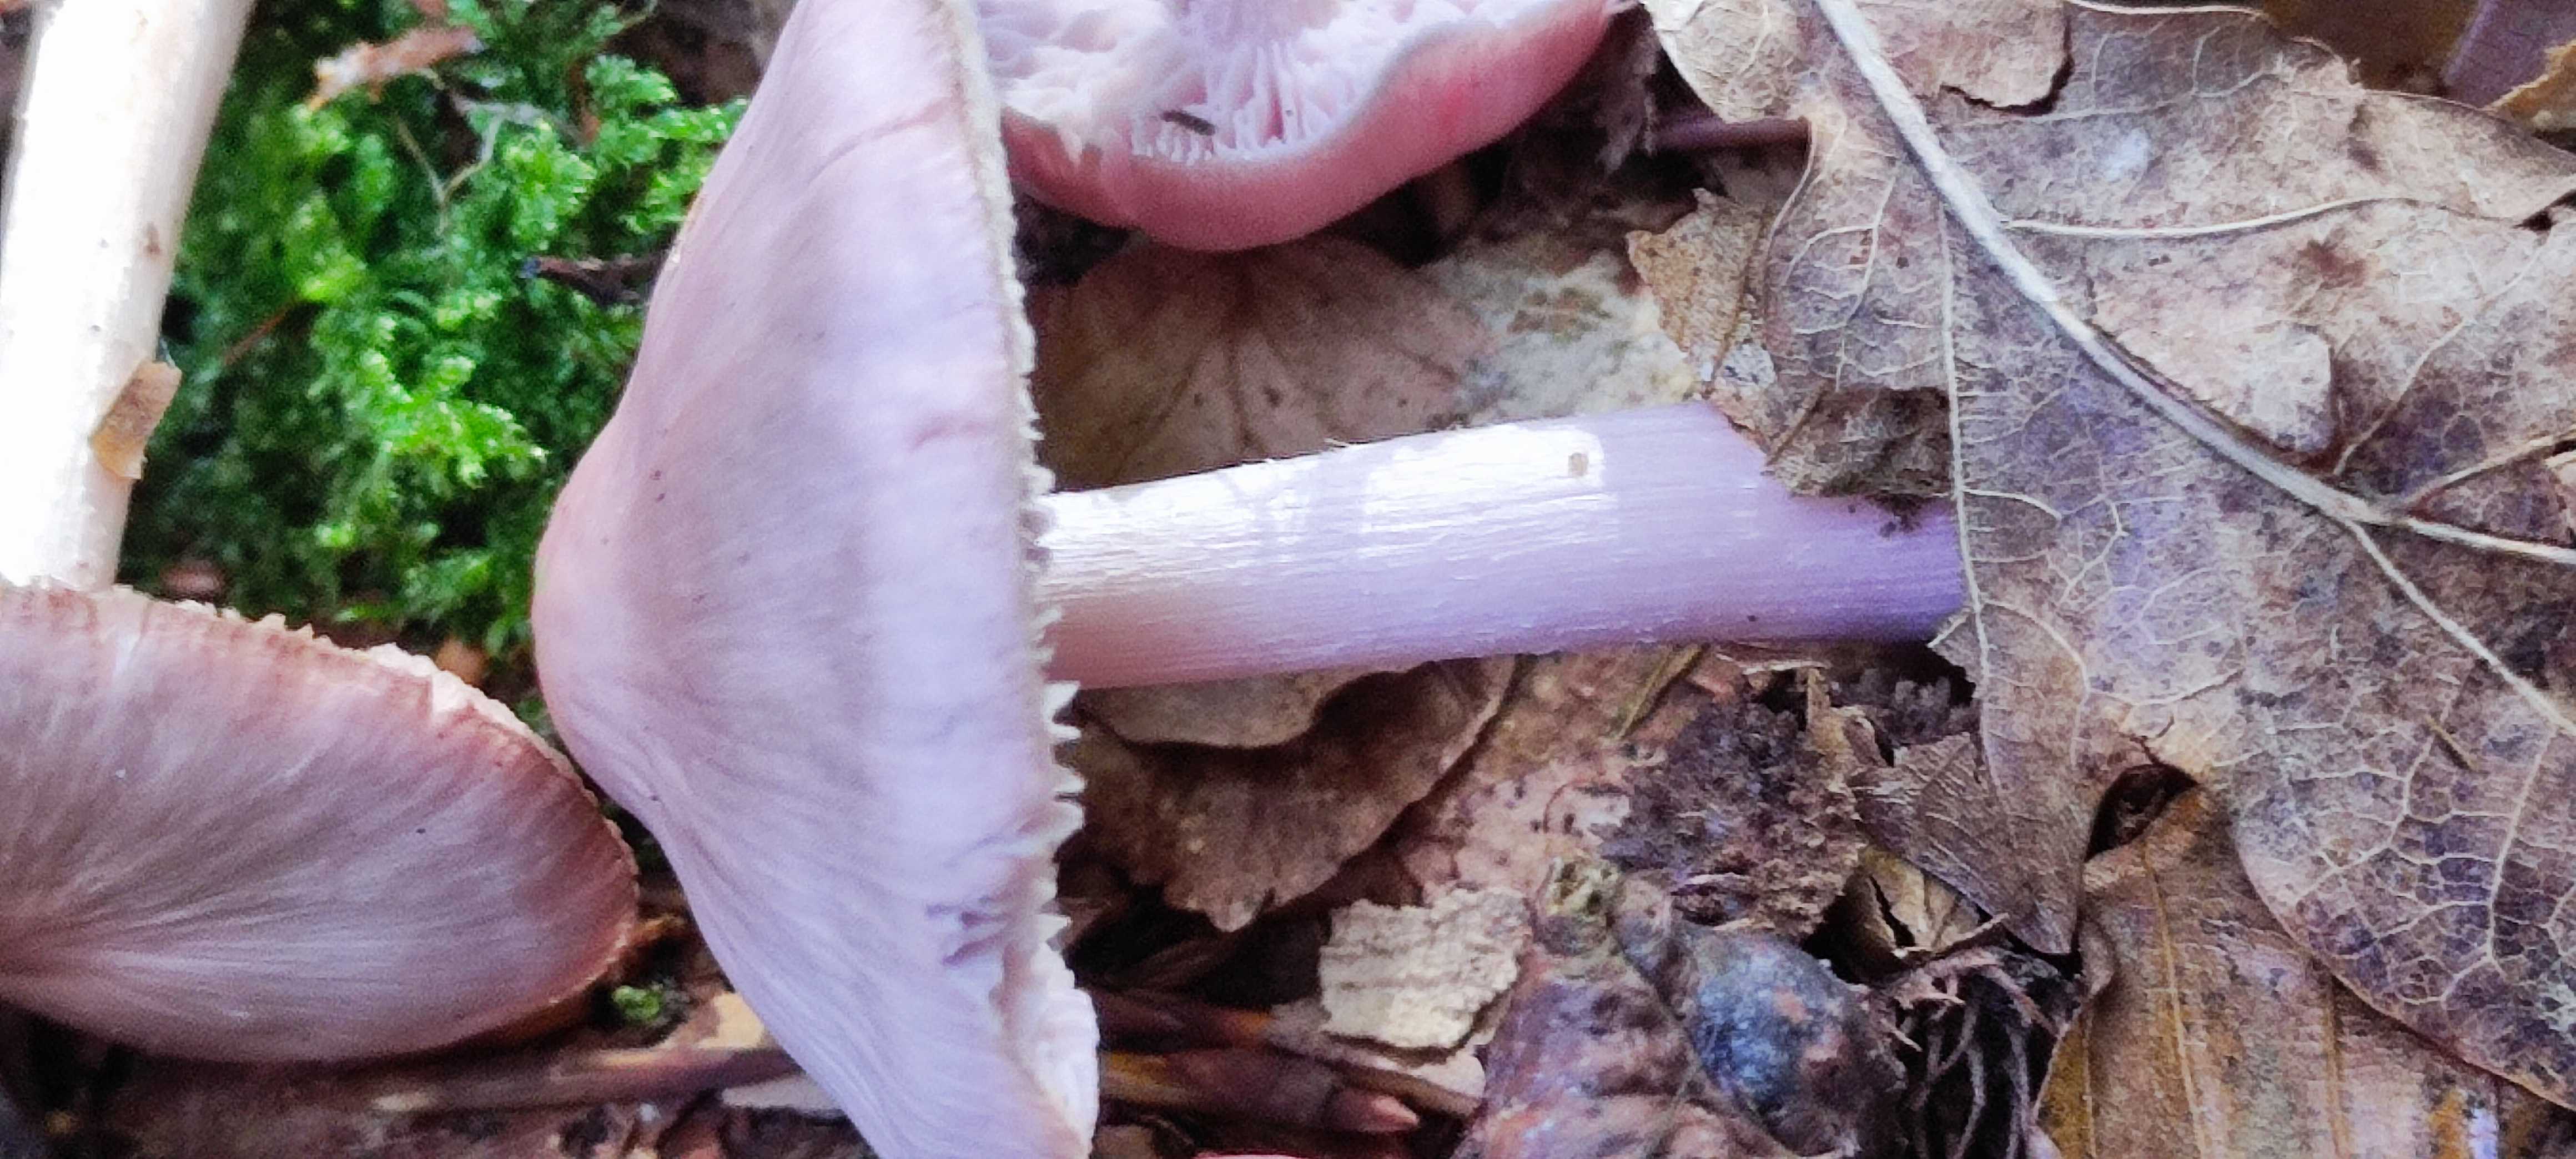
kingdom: Fungi
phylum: Basidiomycota
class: Agaricomycetes
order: Agaricales
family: Mycenaceae
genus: Mycena
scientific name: Mycena rosea
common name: rosa huesvamp
